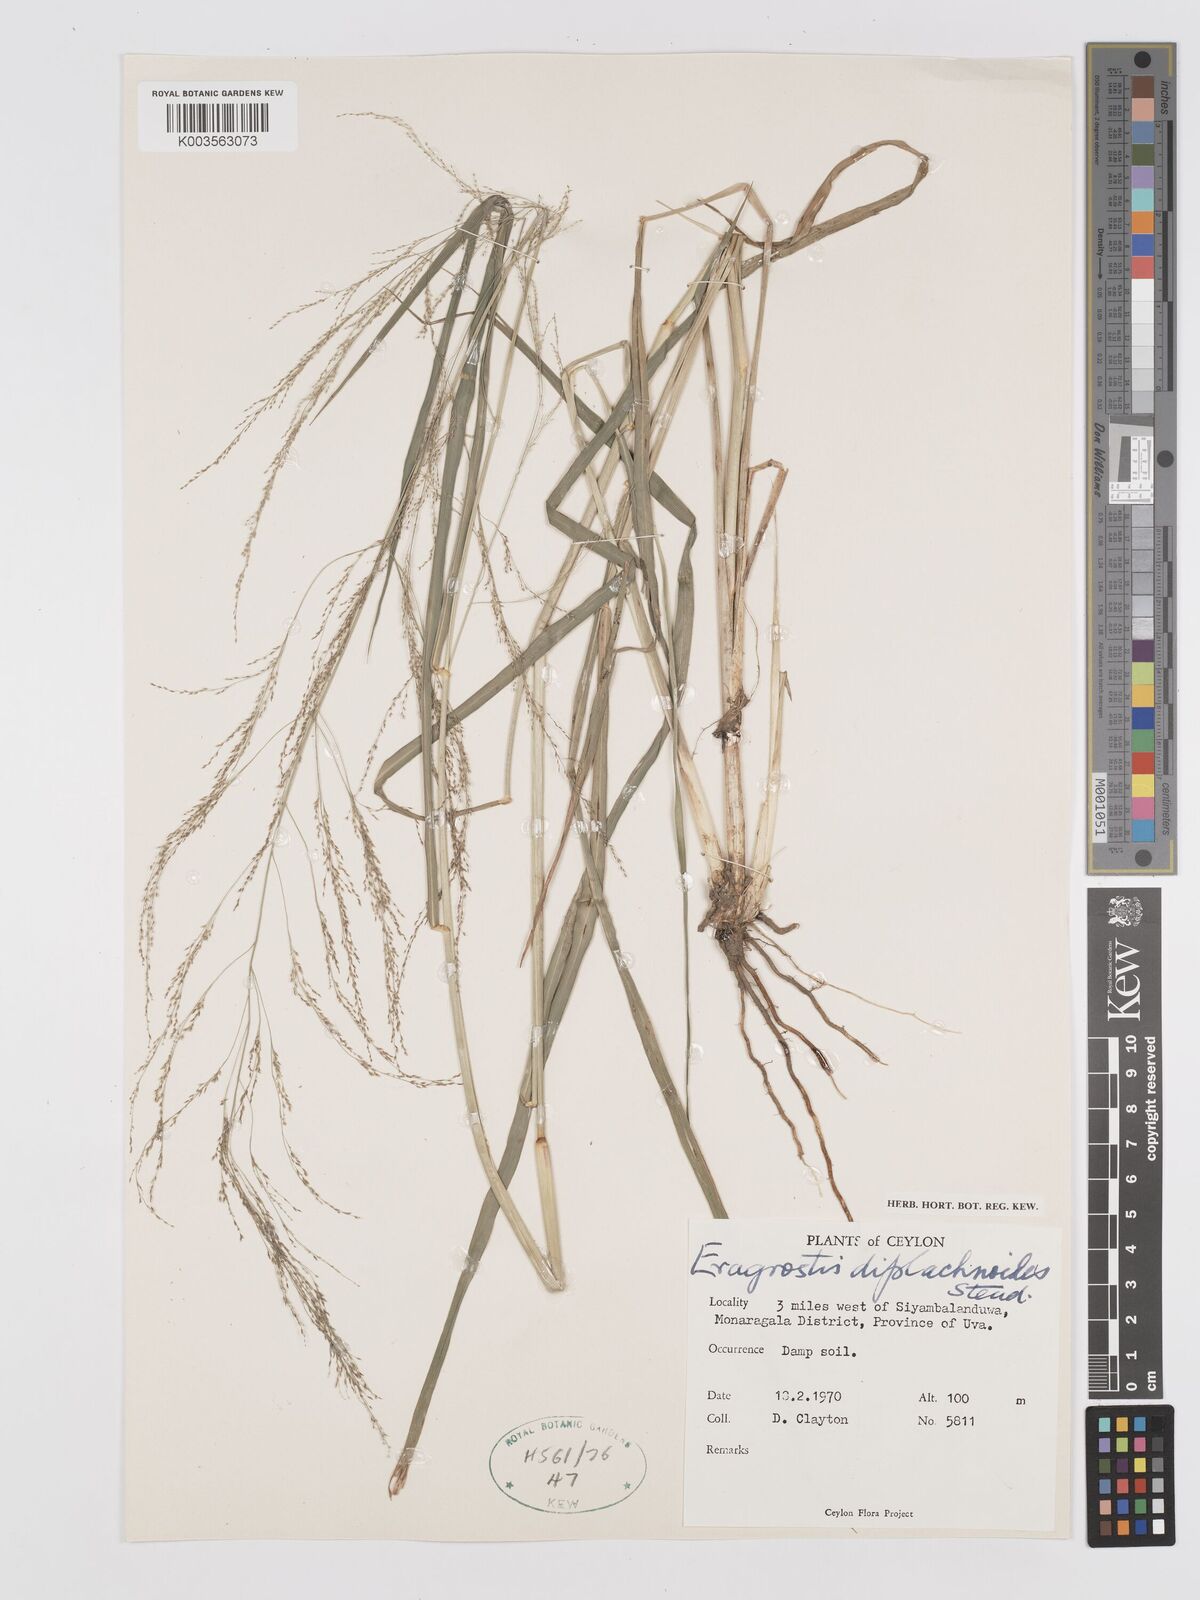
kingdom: Plantae
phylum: Tracheophyta
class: Liliopsida
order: Poales
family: Poaceae
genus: Eragrostis
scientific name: Eragrostis japonica
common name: Pond lovegrass
